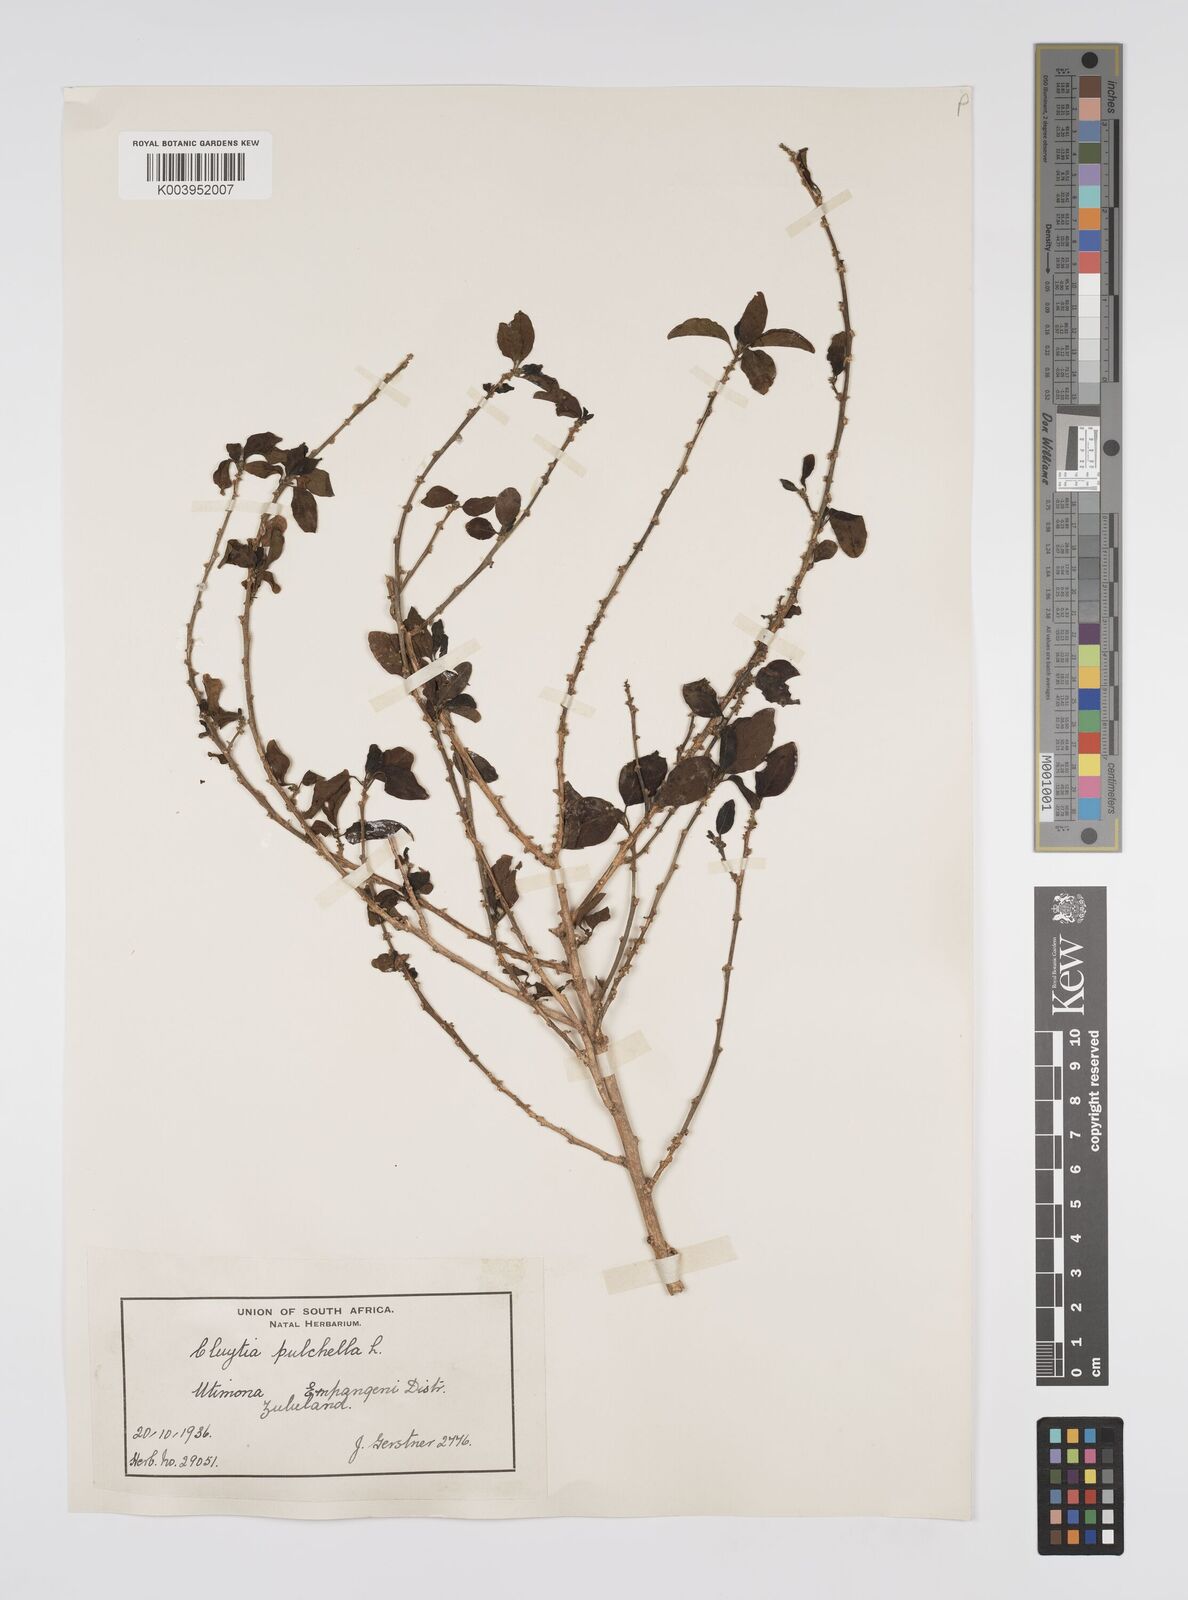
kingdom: Plantae
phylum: Tracheophyta
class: Magnoliopsida
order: Malpighiales
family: Peraceae
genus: Clutia
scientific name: Clutia pulchella
